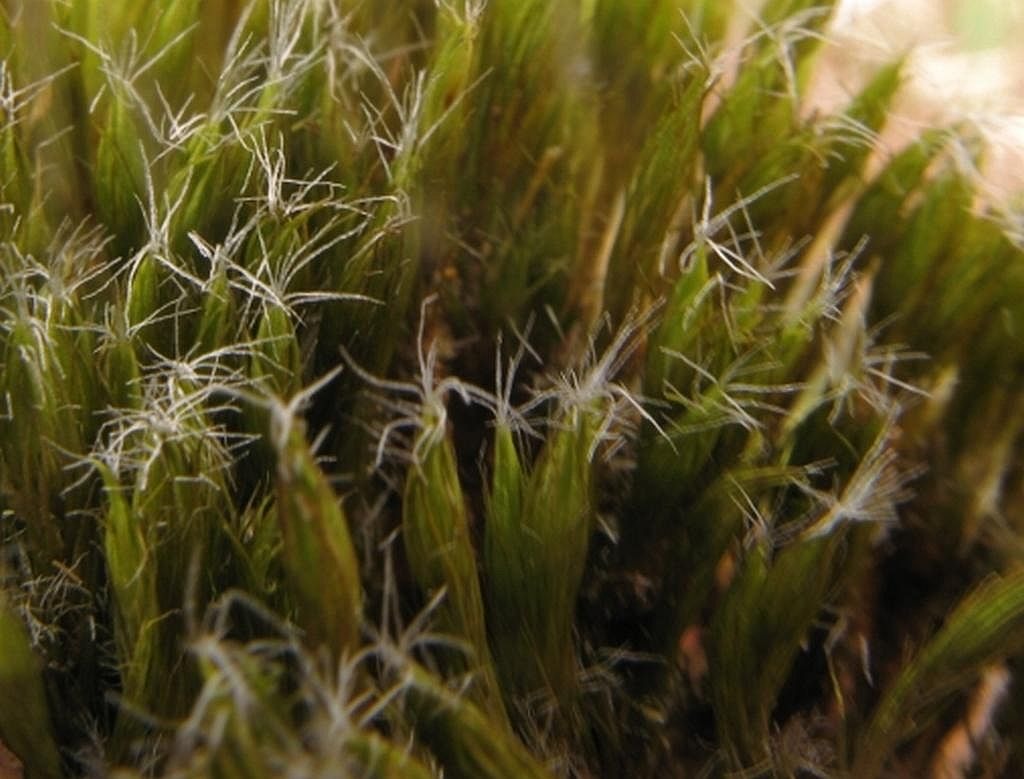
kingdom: Plantae
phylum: Bryophyta
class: Bryopsida
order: Dicranales
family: Leucobryaceae
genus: Campylopus
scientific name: Campylopus introflexus
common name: Stjerne-bredribbe
